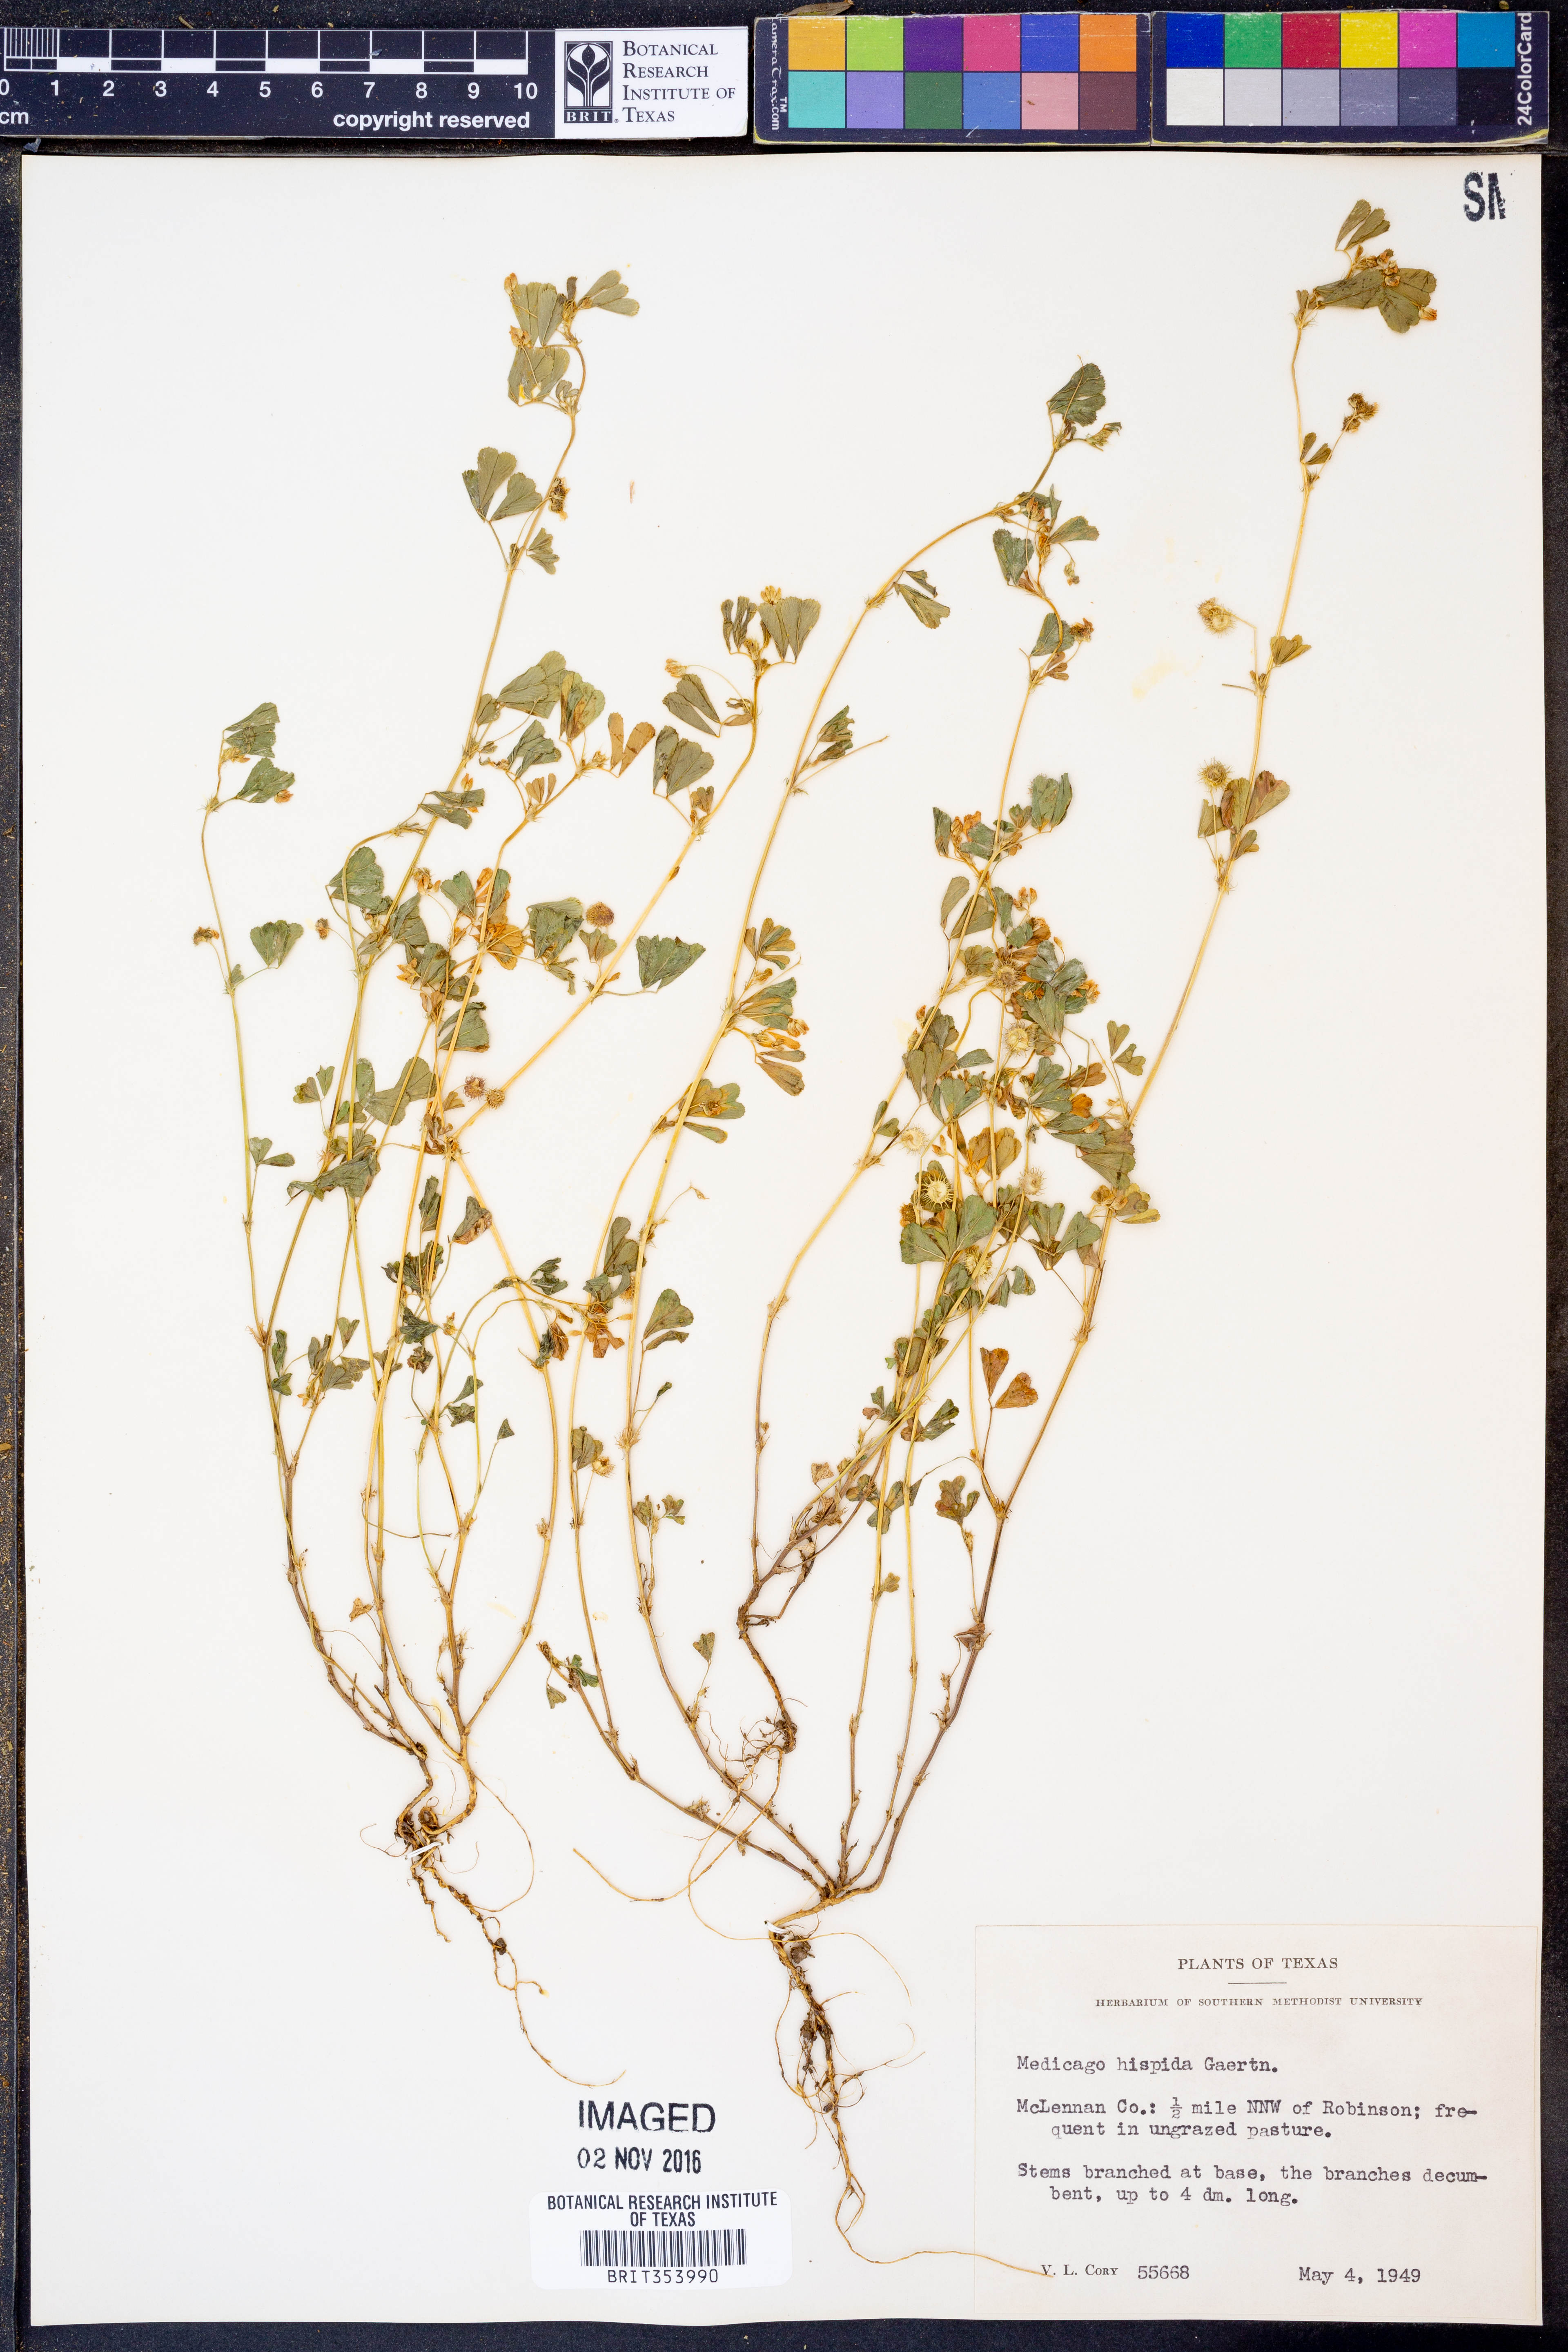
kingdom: Plantae
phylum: Tracheophyta
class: Magnoliopsida
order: Fabales
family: Fabaceae
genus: Medicago
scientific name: Medicago polymorpha
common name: Burclover
